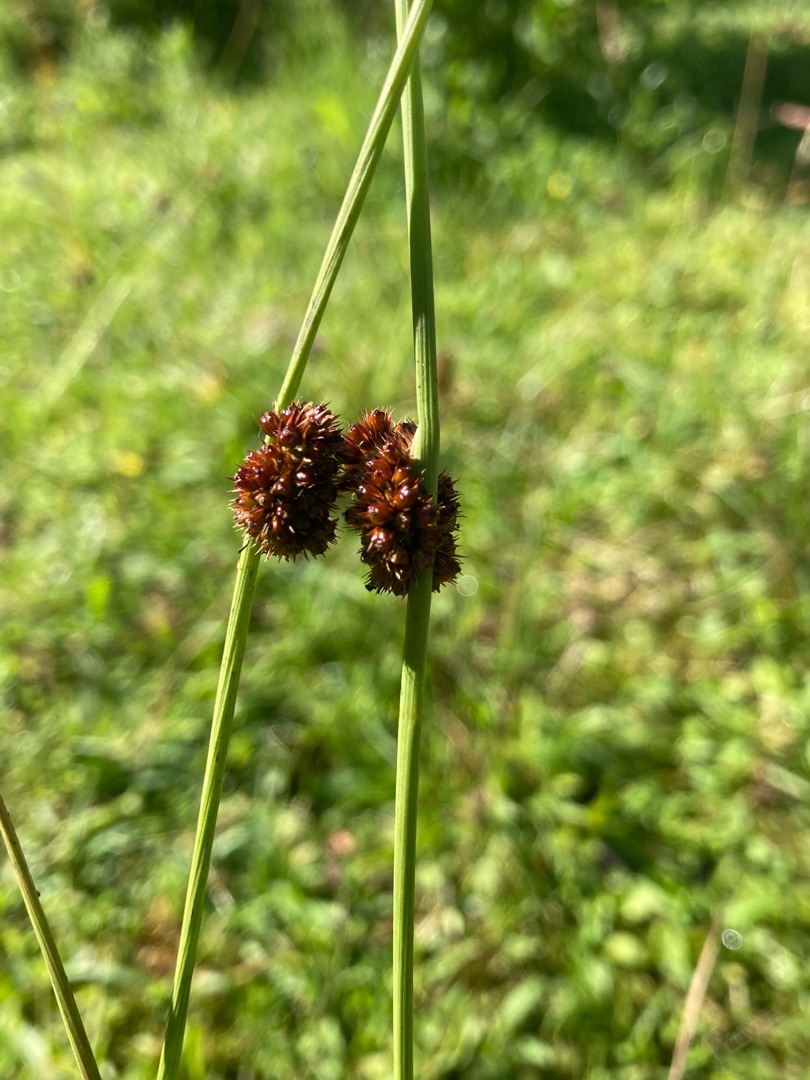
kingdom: Plantae
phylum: Tracheophyta
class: Liliopsida
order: Poales
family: Juncaceae
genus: Juncus
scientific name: Juncus conglomeratus
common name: Knop-siv
